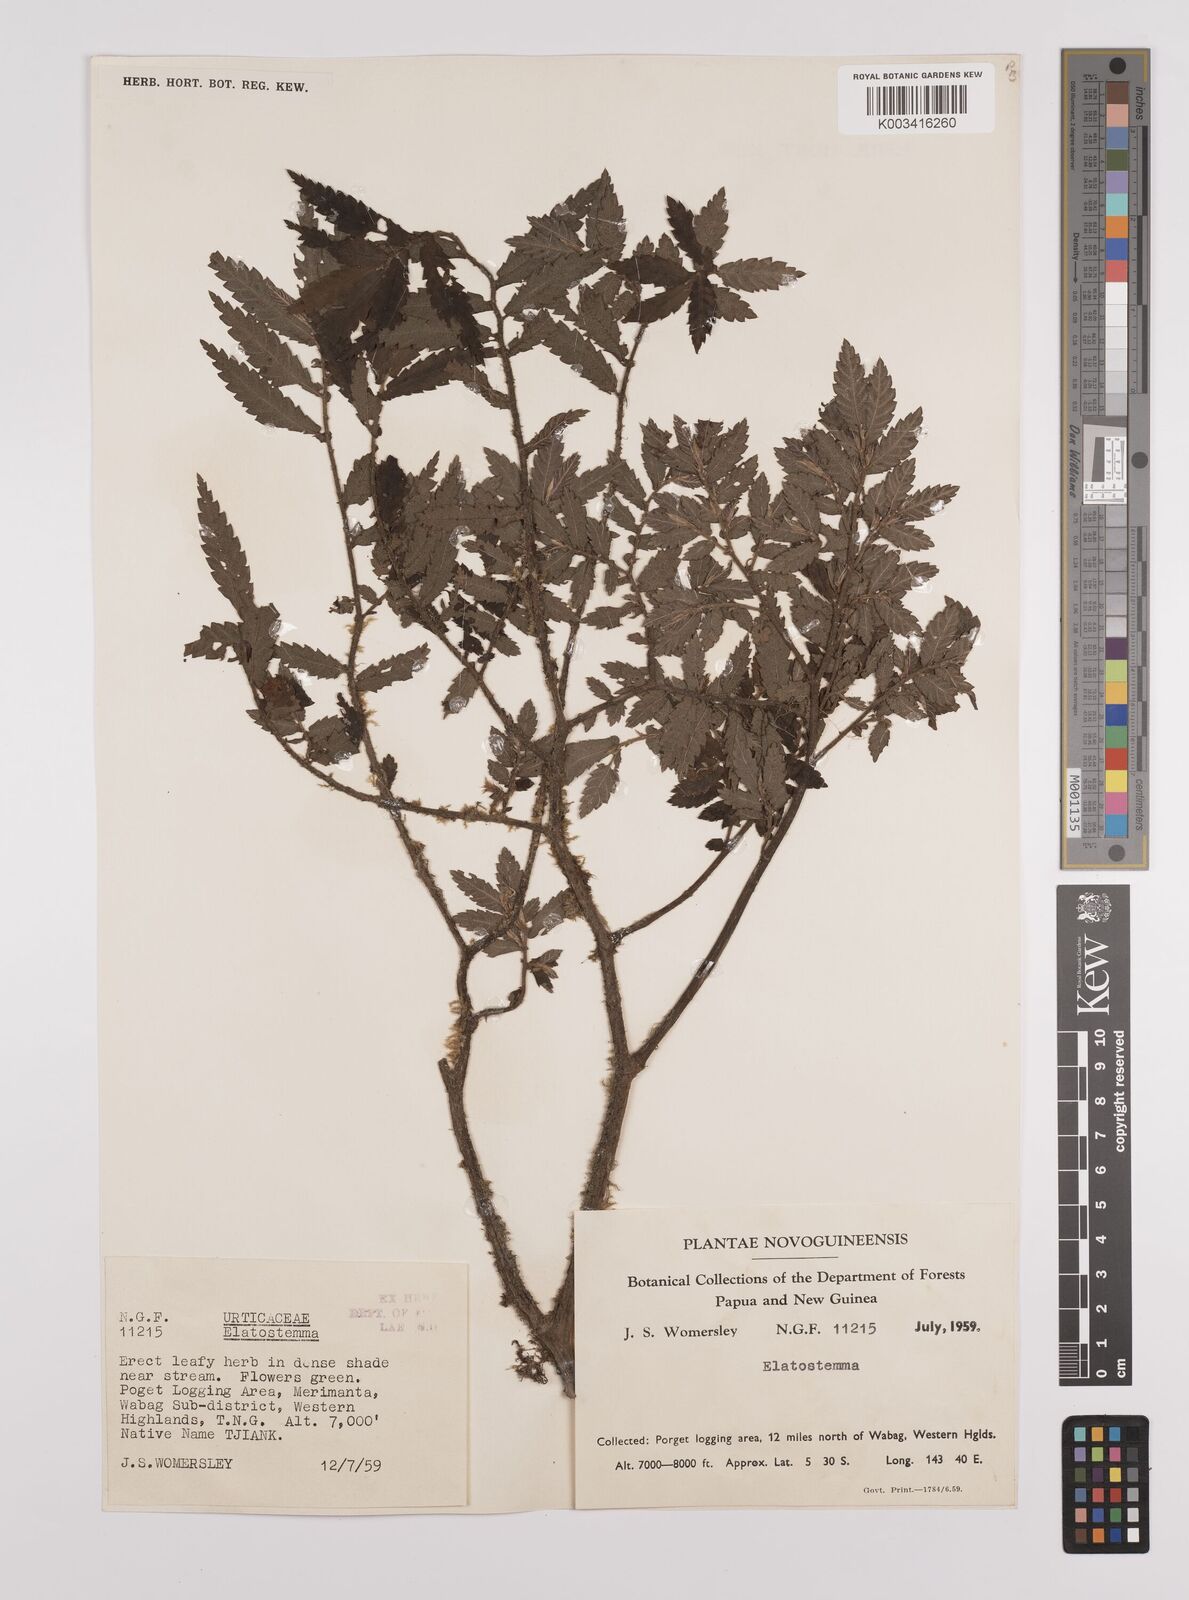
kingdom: Plantae
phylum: Tracheophyta
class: Magnoliopsida
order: Rosales
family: Urticaceae
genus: Elatostema
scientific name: Elatostema blechnoides
